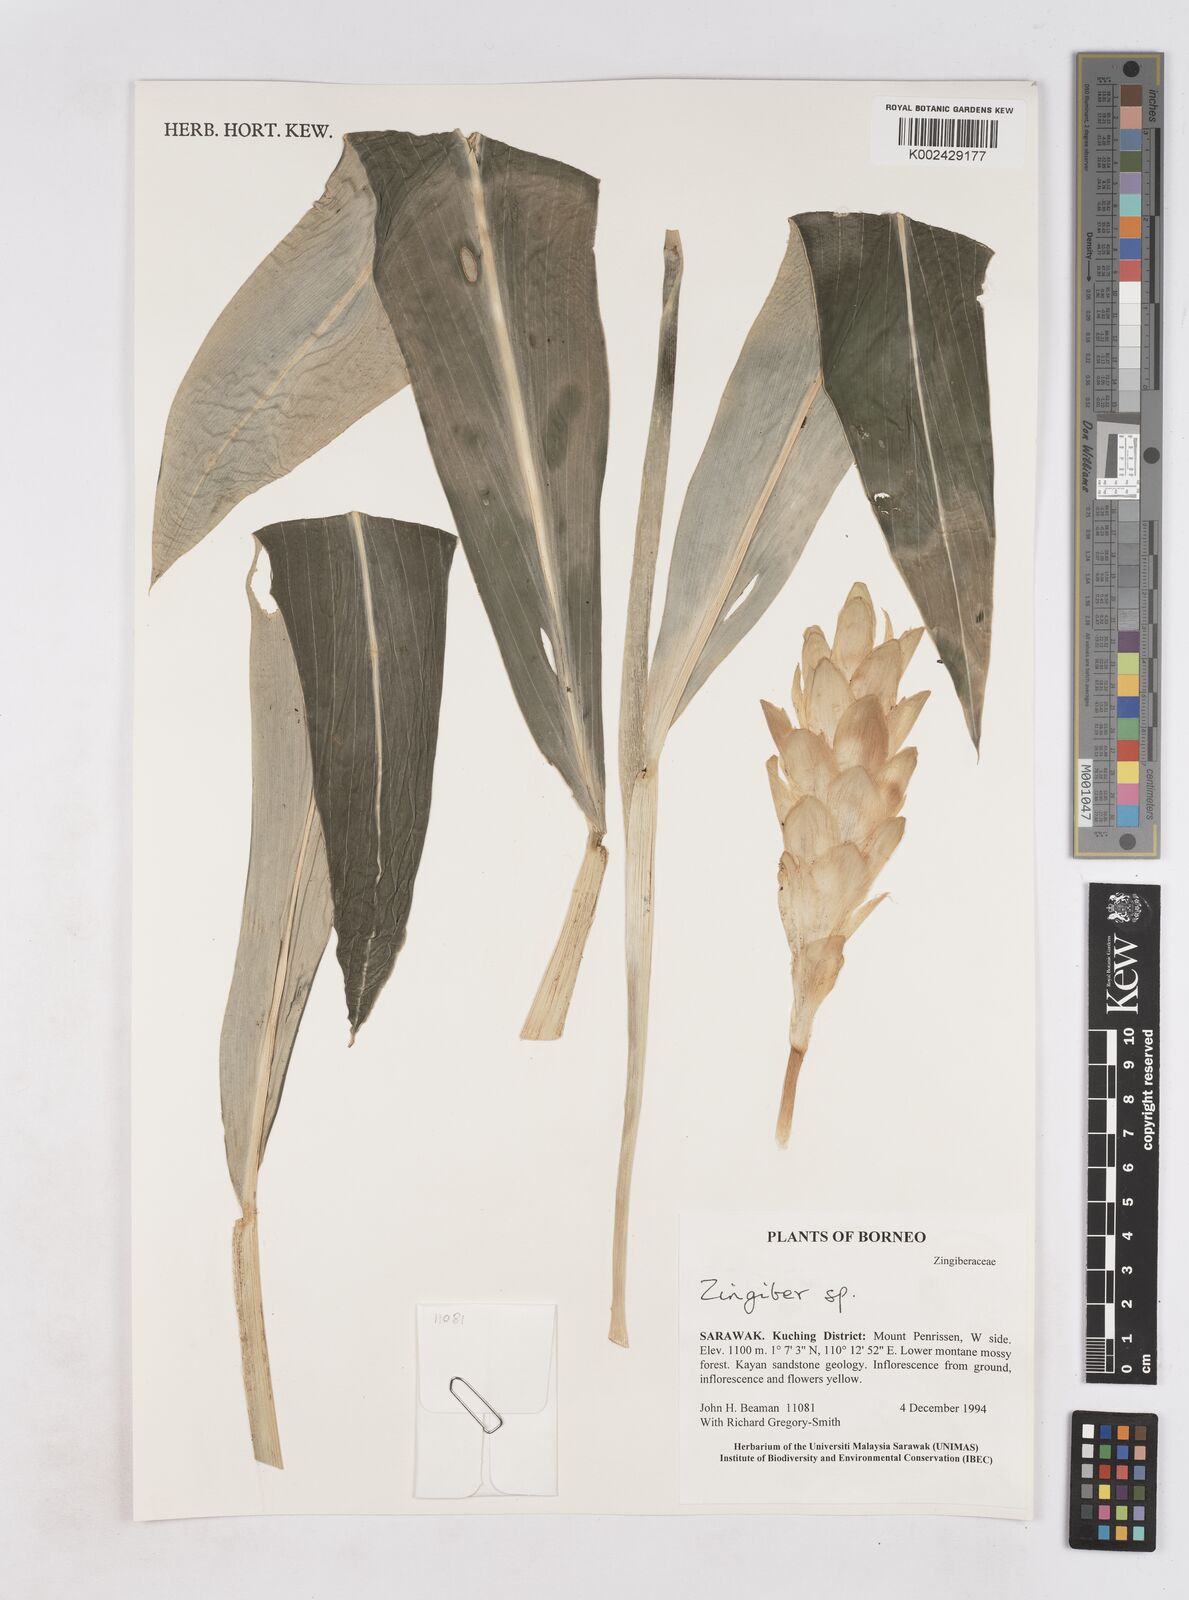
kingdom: Plantae
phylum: Tracheophyta
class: Liliopsida
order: Zingiberales
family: Zingiberaceae
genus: Zingiber
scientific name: Zingiber
